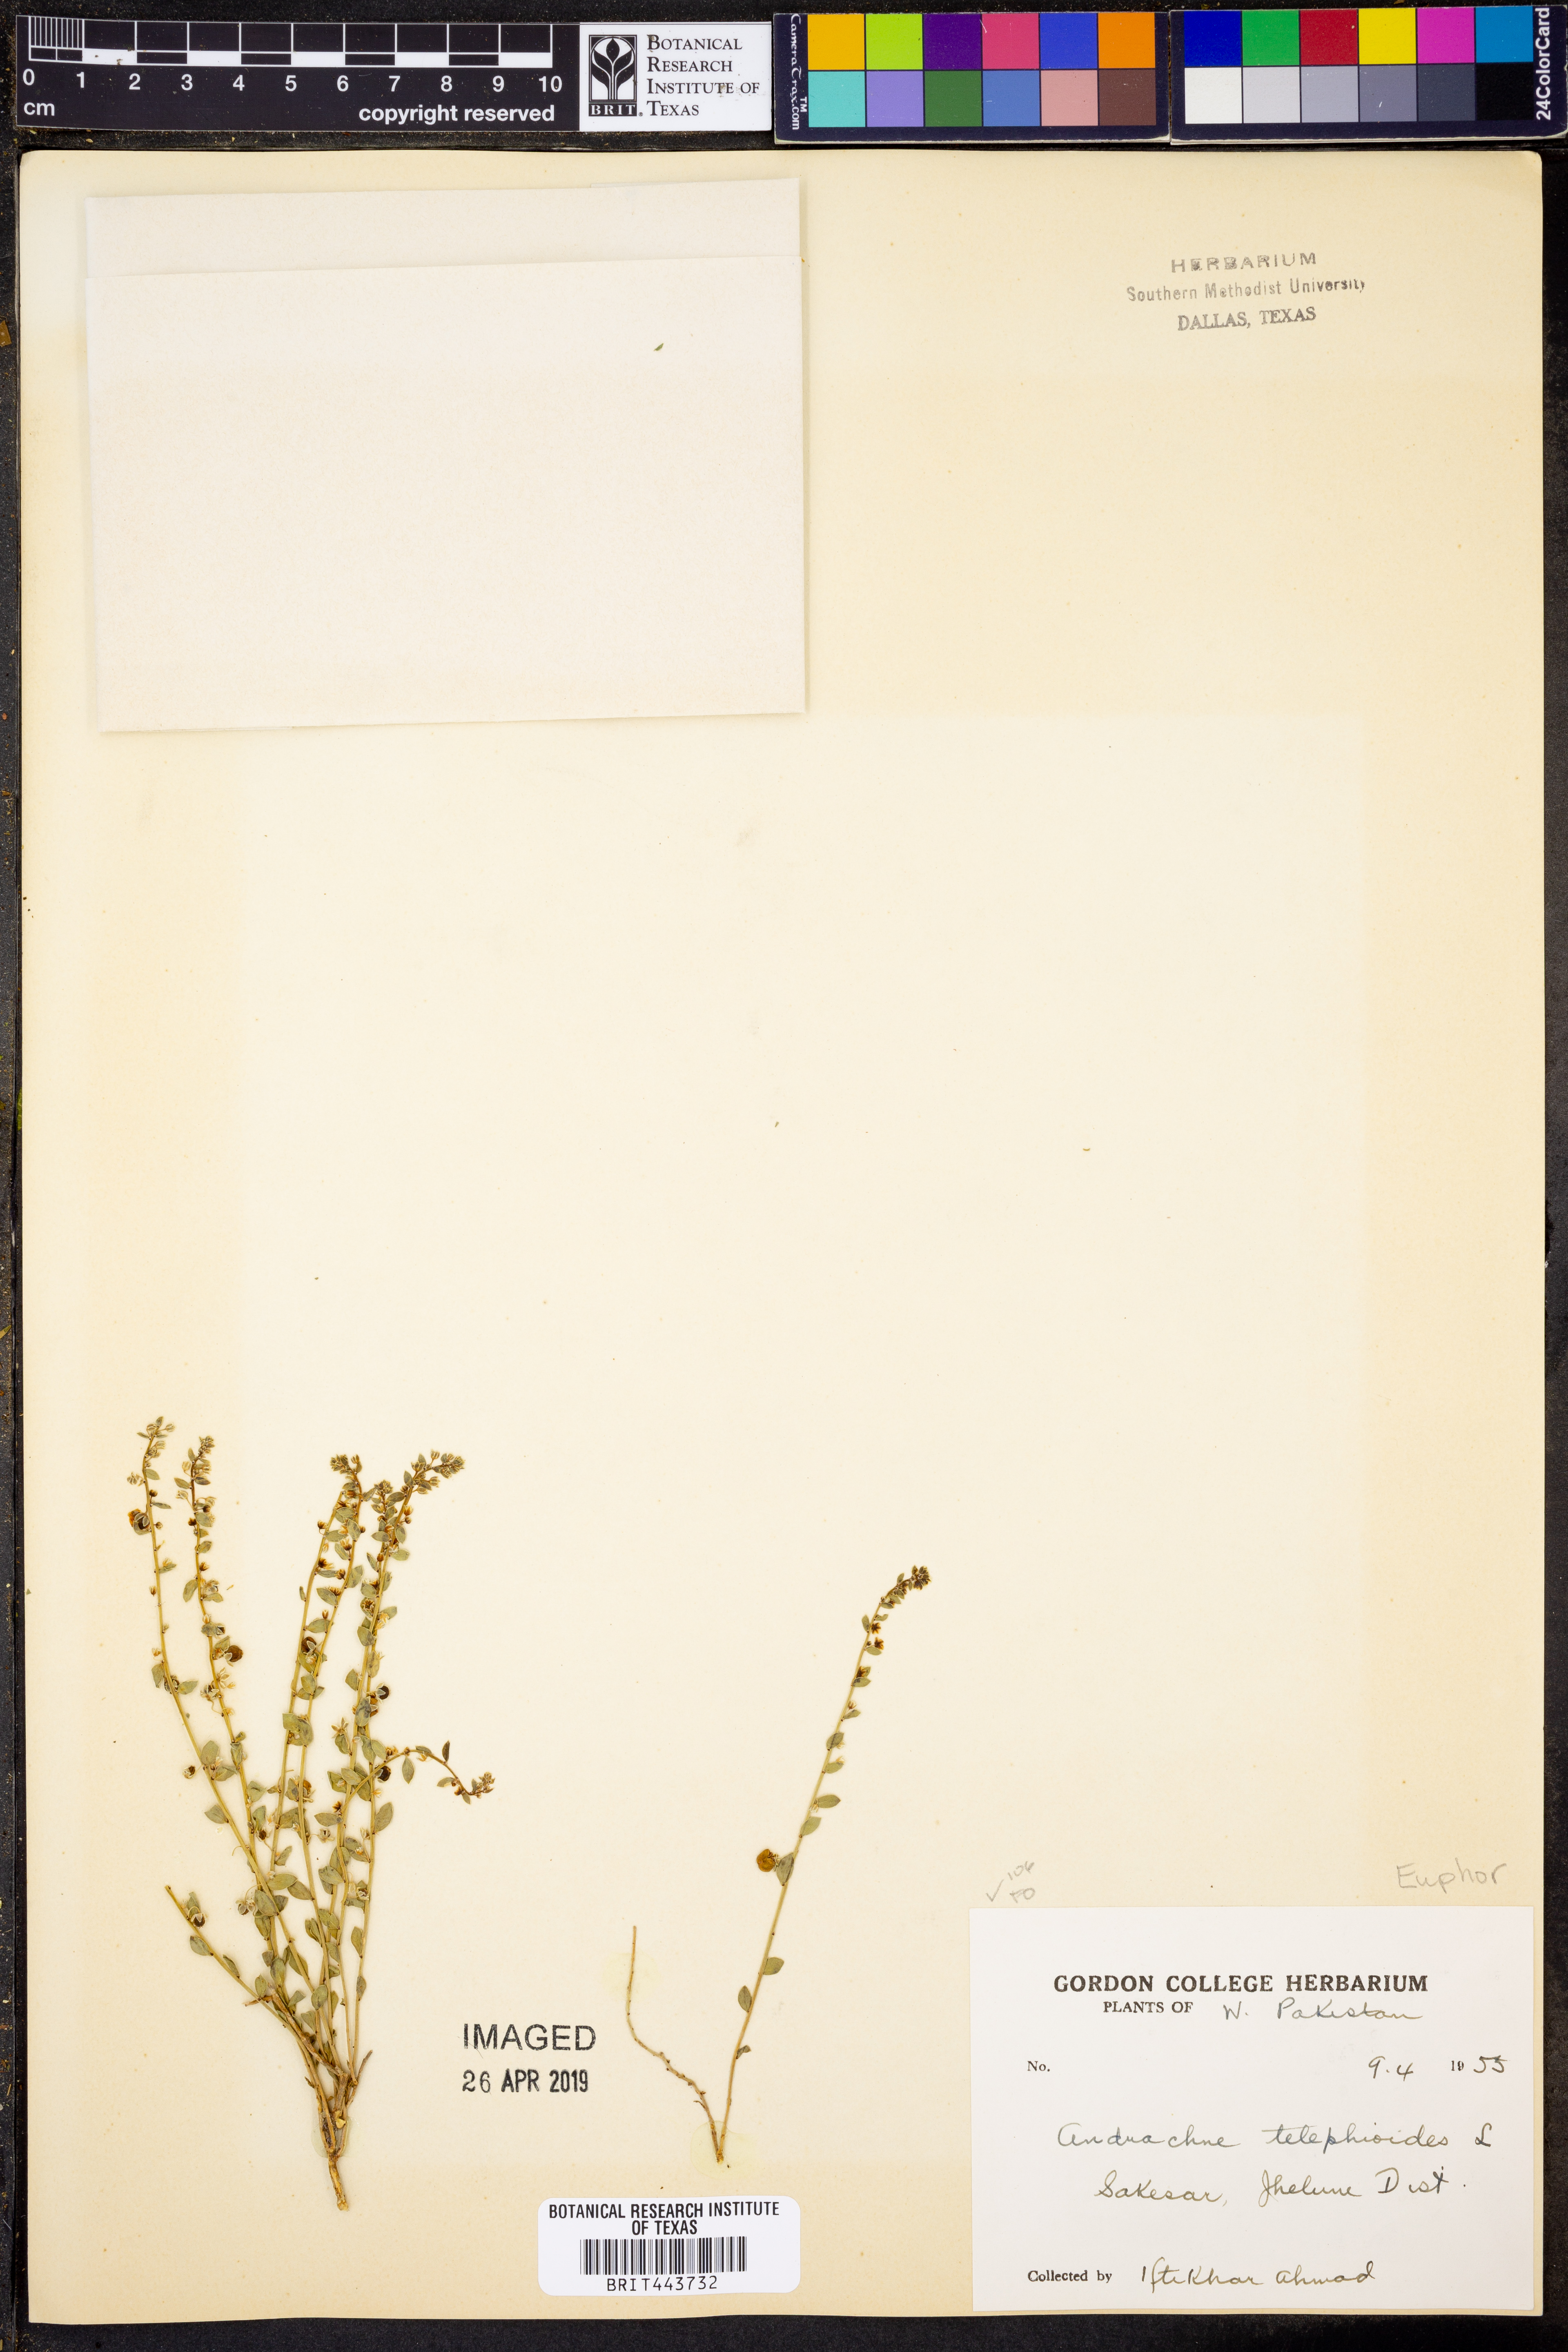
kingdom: Plantae
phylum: Tracheophyta
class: Magnoliopsida
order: Malpighiales
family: Phyllanthaceae
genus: Andrachne
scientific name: Andrachne telephioides
